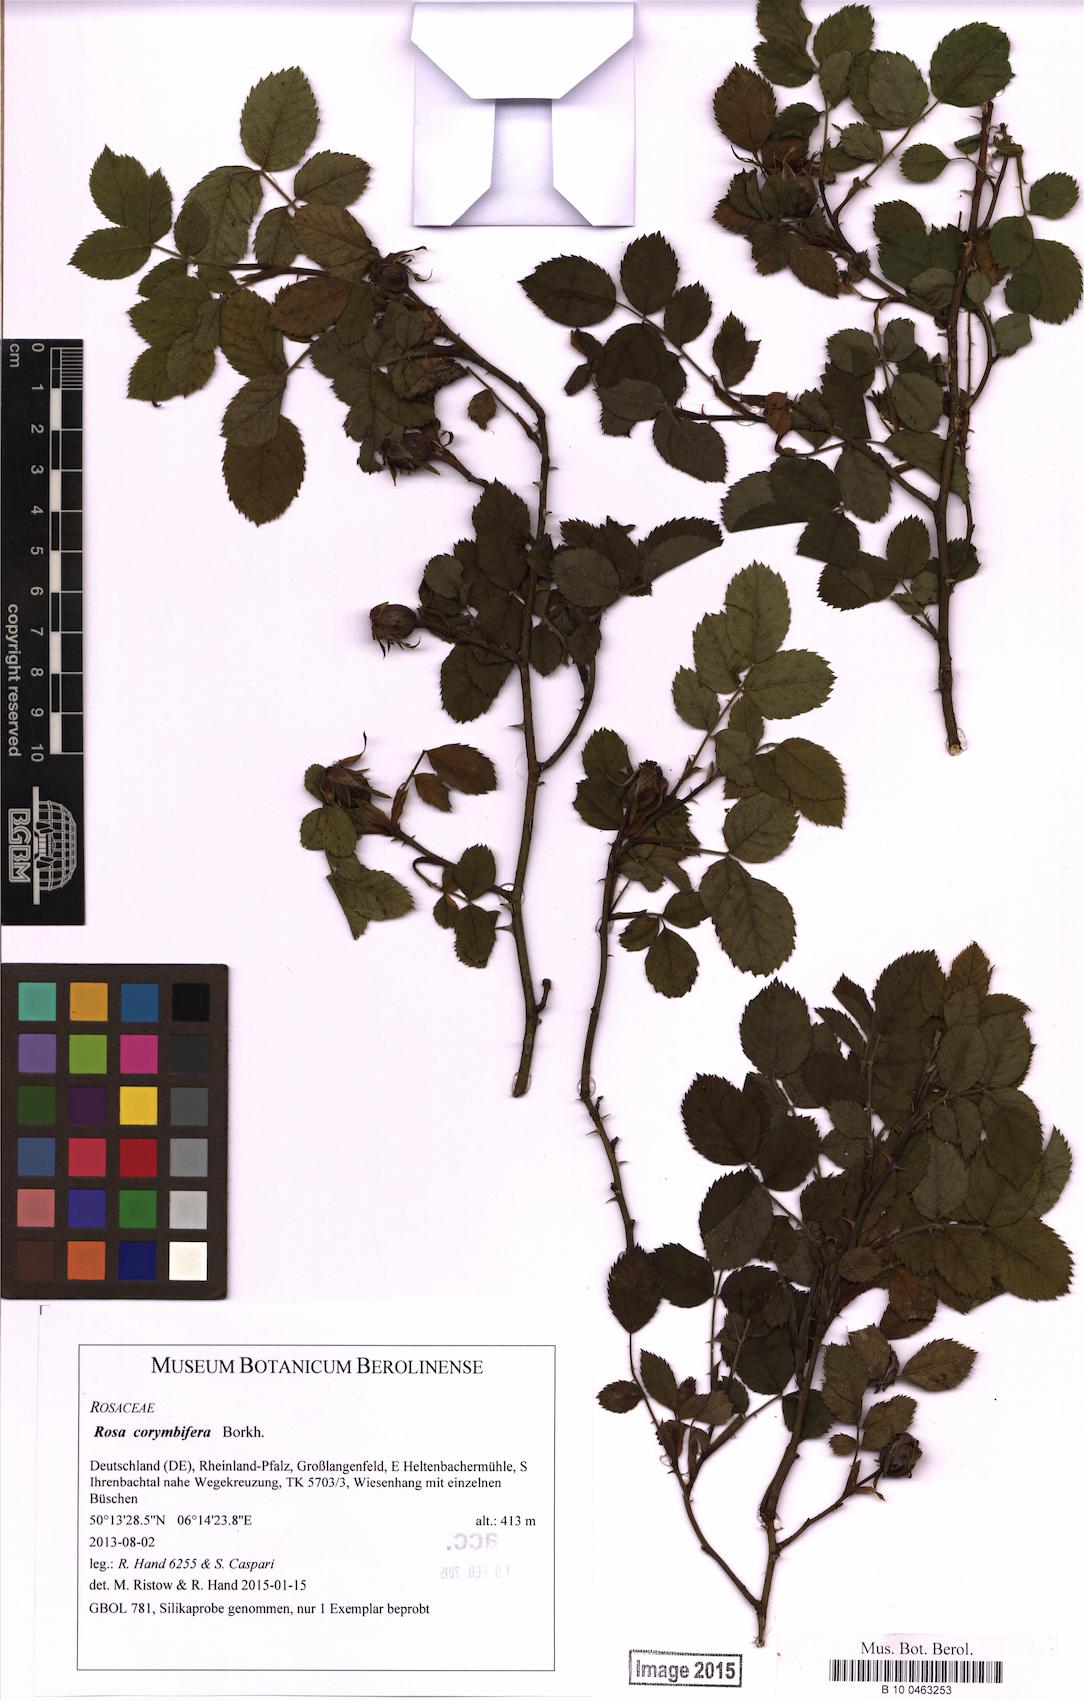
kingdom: Plantae
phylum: Tracheophyta
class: Magnoliopsida
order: Rosales
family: Rosaceae
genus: Rosa
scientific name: Rosa corymbifera
